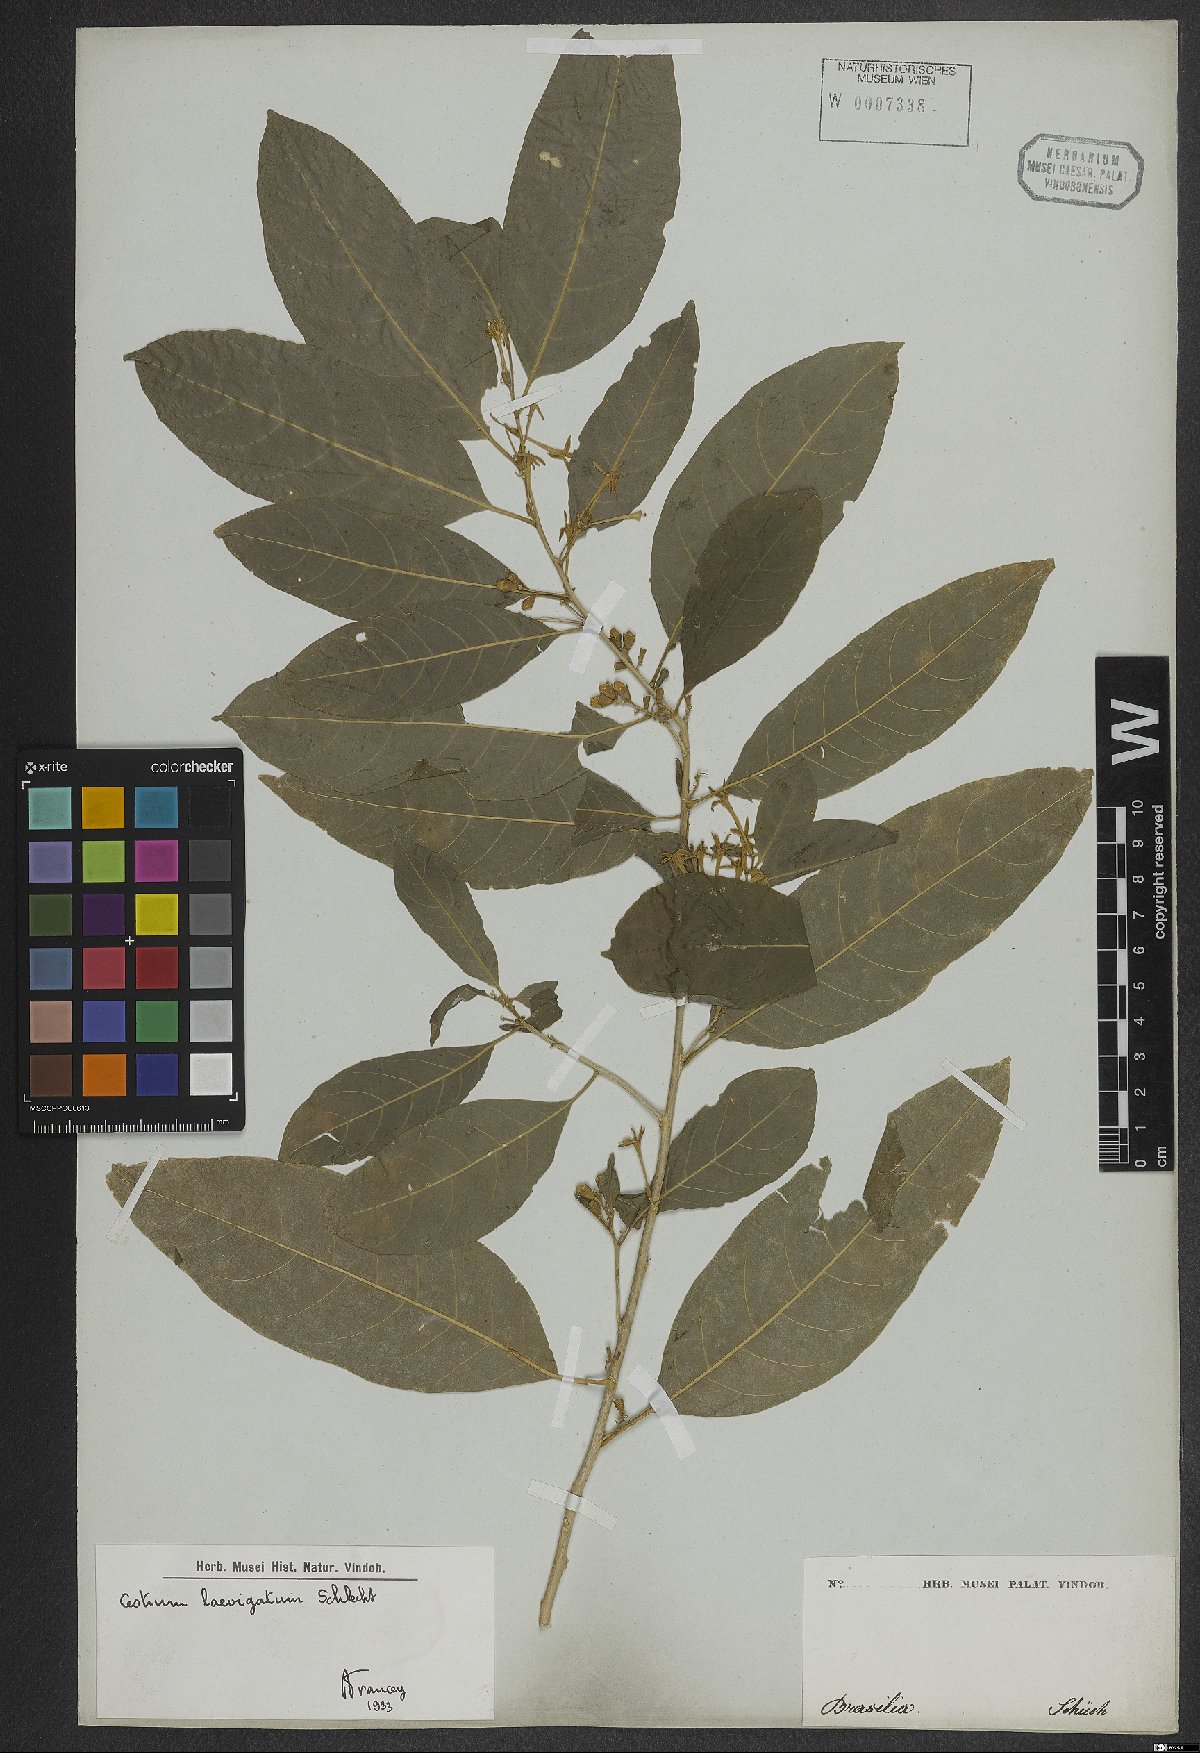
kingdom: Plantae
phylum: Tracheophyta
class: Magnoliopsida
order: Solanales
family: Solanaceae
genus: Cestrum
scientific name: Cestrum laevigatum
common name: Inkberry
